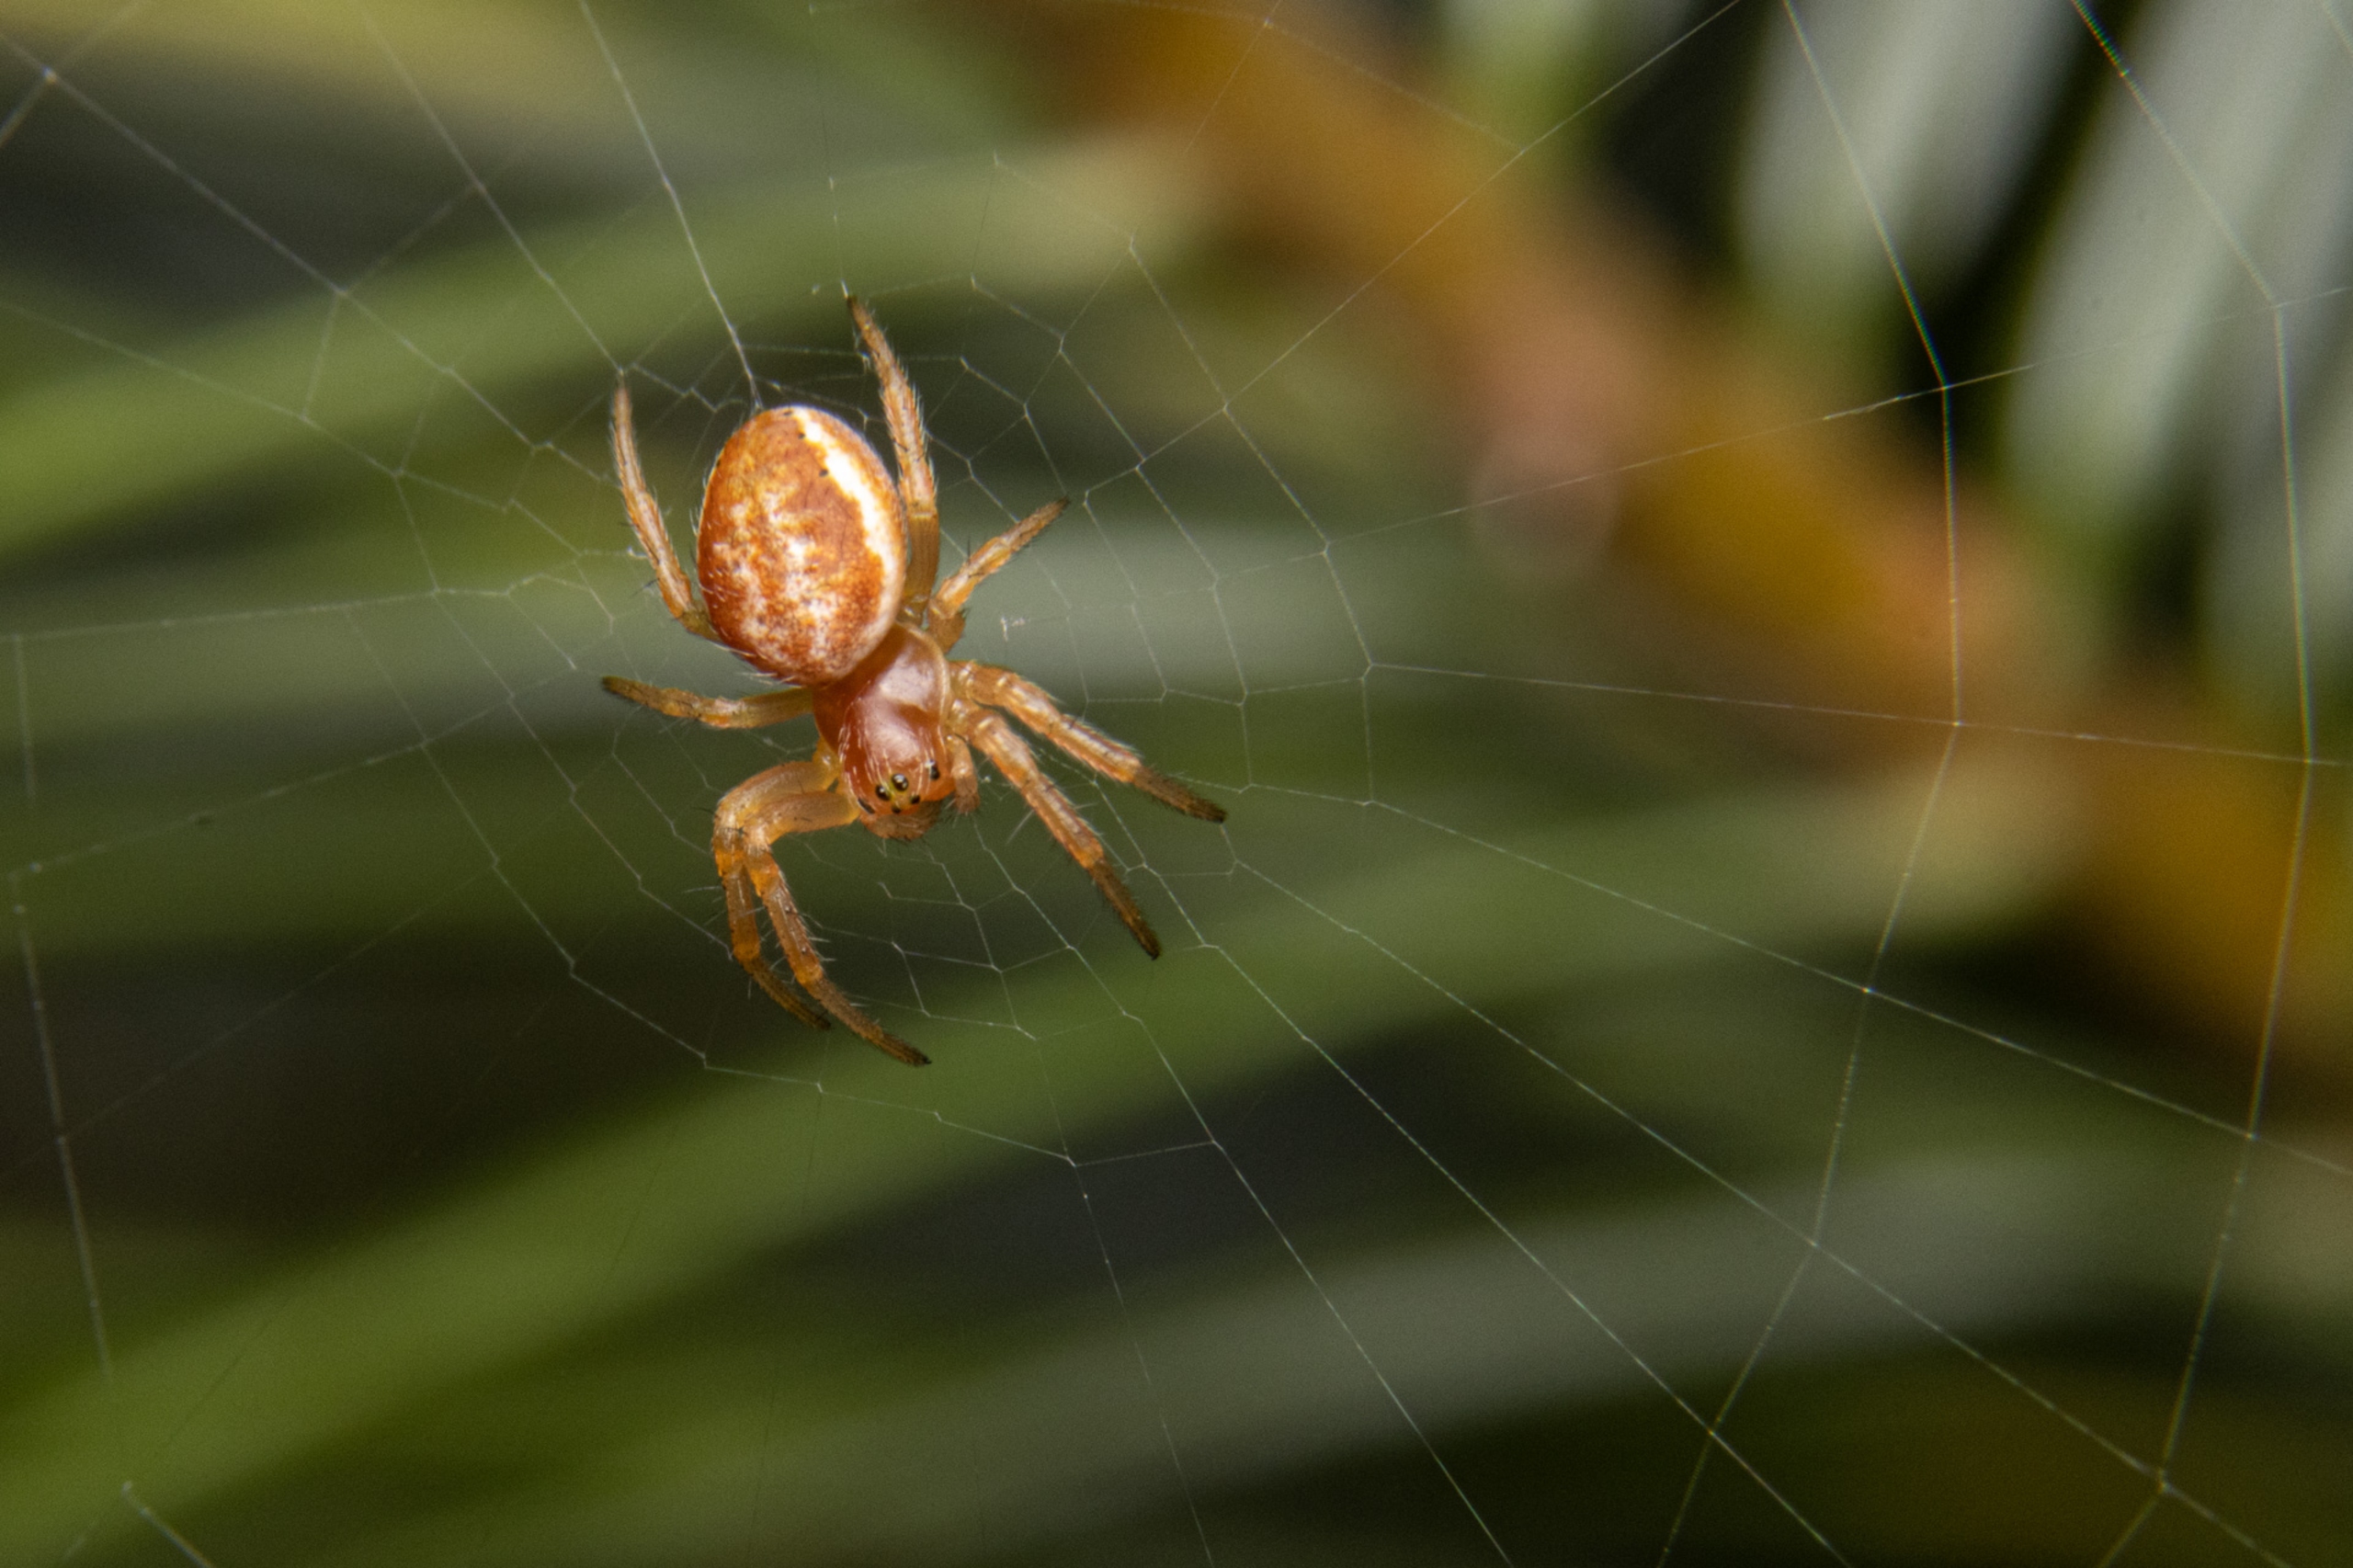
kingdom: Animalia
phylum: Arthropoda
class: Arachnida
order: Araneae
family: Araneidae
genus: Araniella
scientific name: Araniella
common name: Agurkeedderkopslægten
